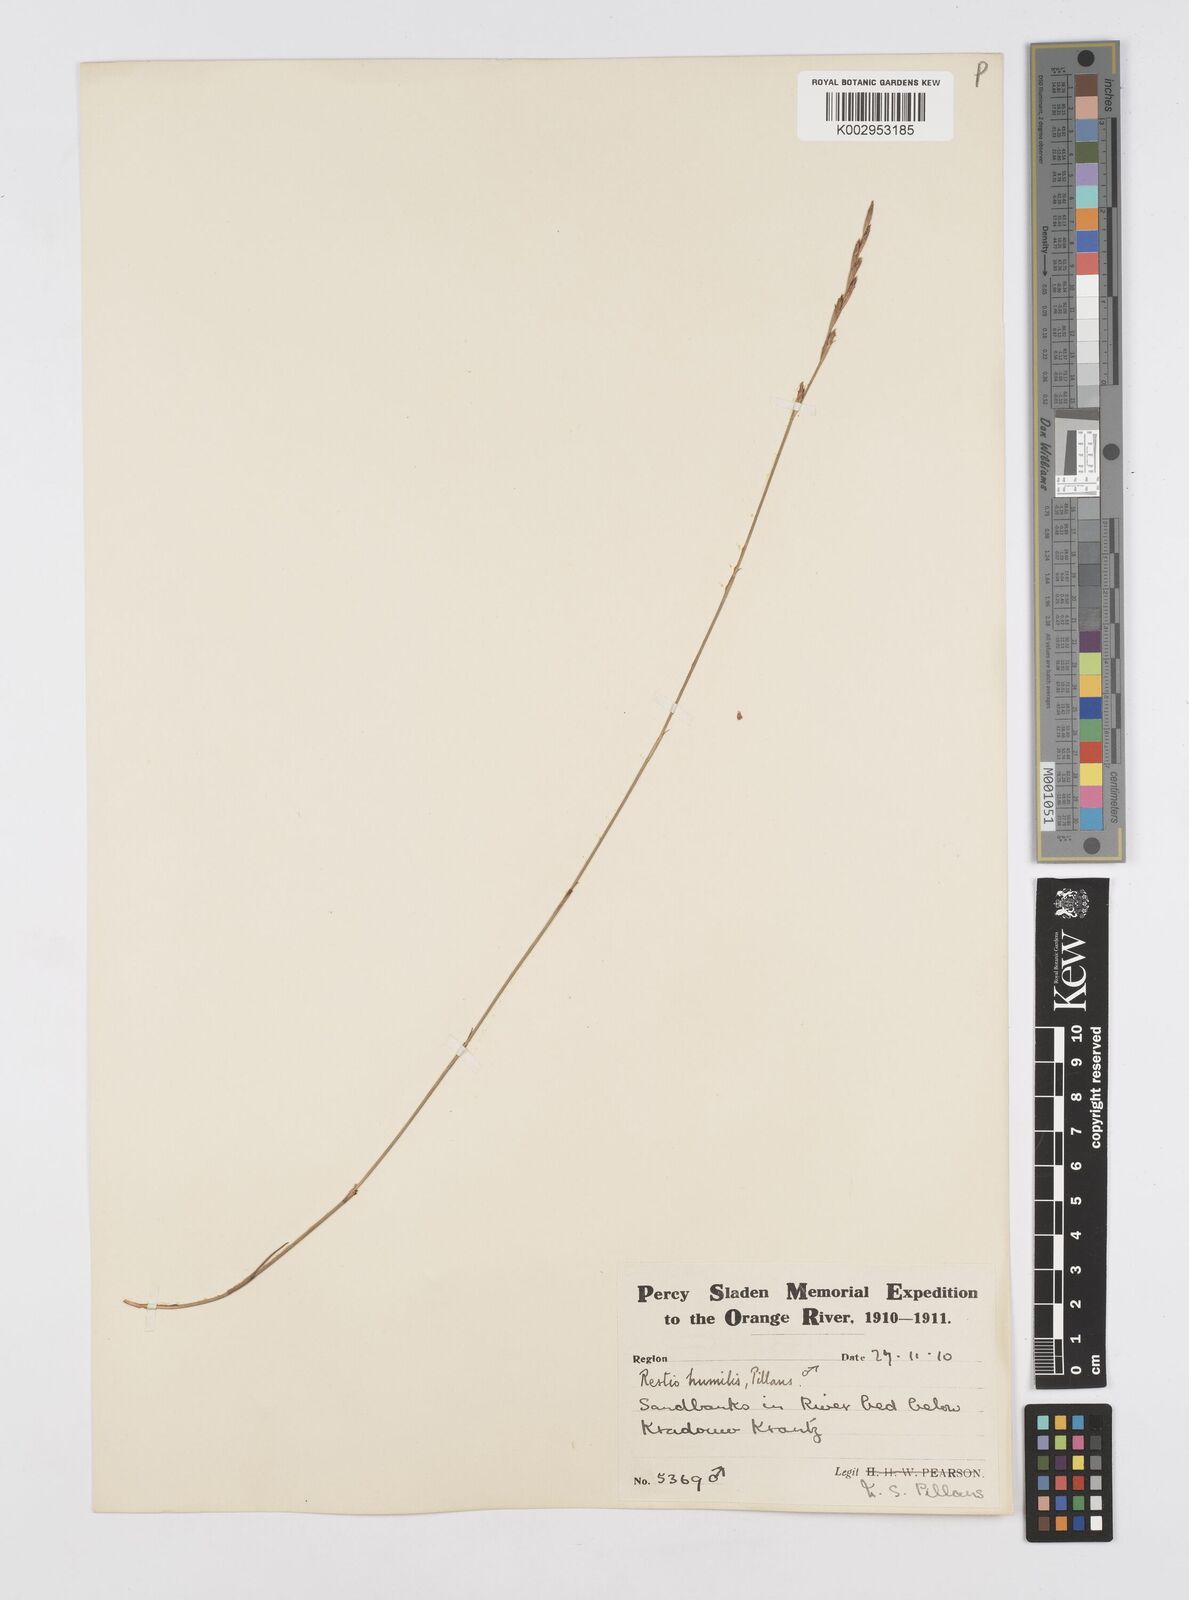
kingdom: Plantae
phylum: Tracheophyta
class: Liliopsida
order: Poales
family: Restionaceae
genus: Restio
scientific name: Restio wallichii
